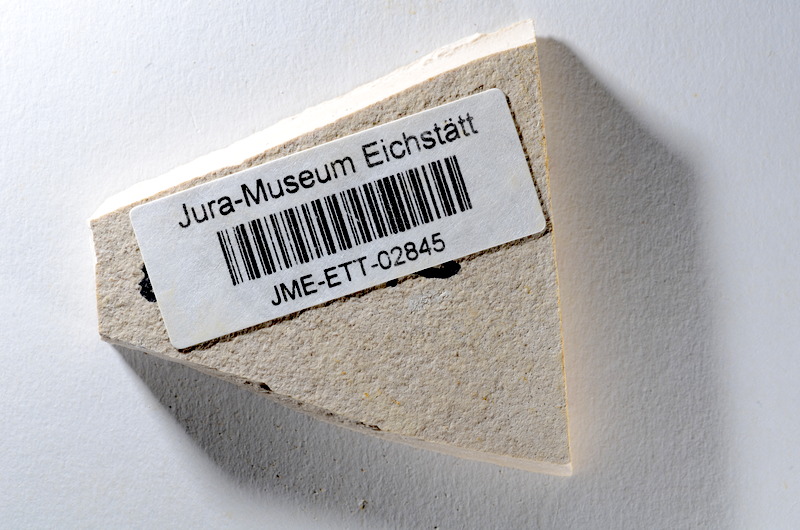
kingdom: Animalia
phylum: Chordata
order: Salmoniformes
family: Orthogonikleithridae
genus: Orthogonikleithrus
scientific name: Orthogonikleithrus hoelli
